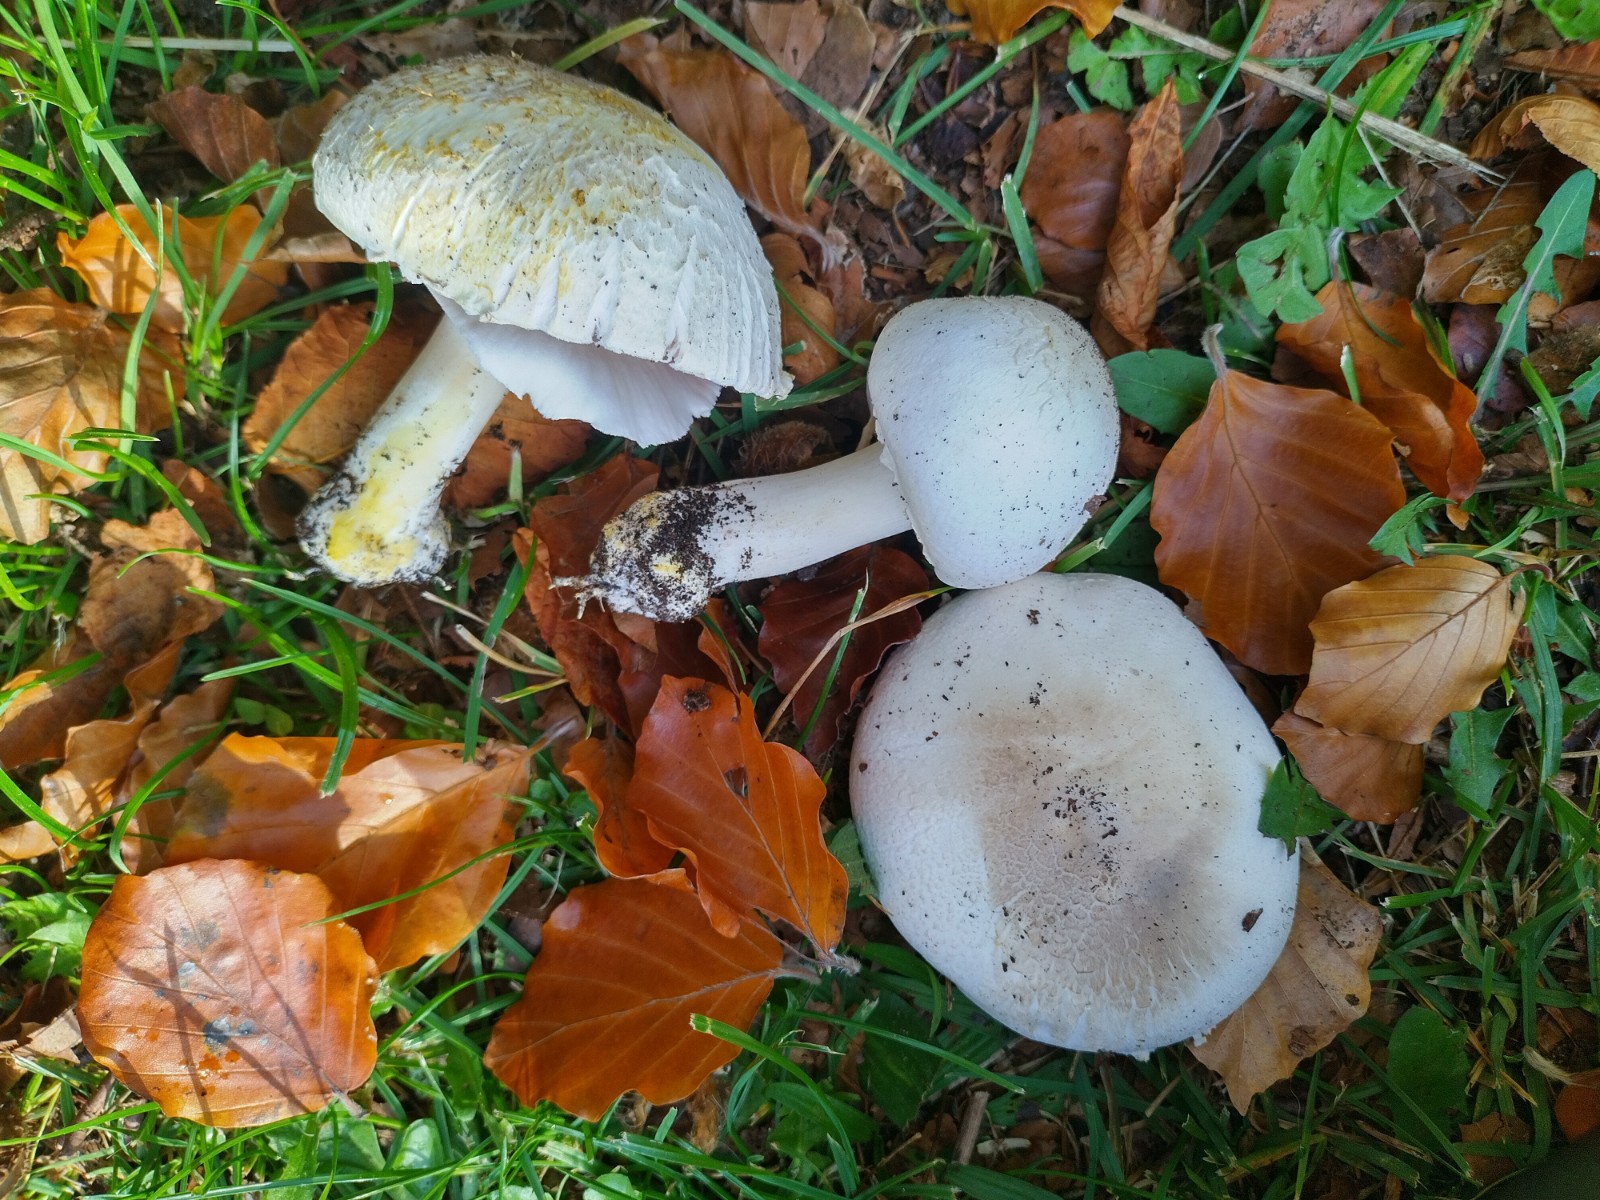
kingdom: Fungi
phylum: Basidiomycota
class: Agaricomycetes
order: Agaricales
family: Agaricaceae
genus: Agaricus
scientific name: Agaricus xanthodermus
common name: karbol-champignon
